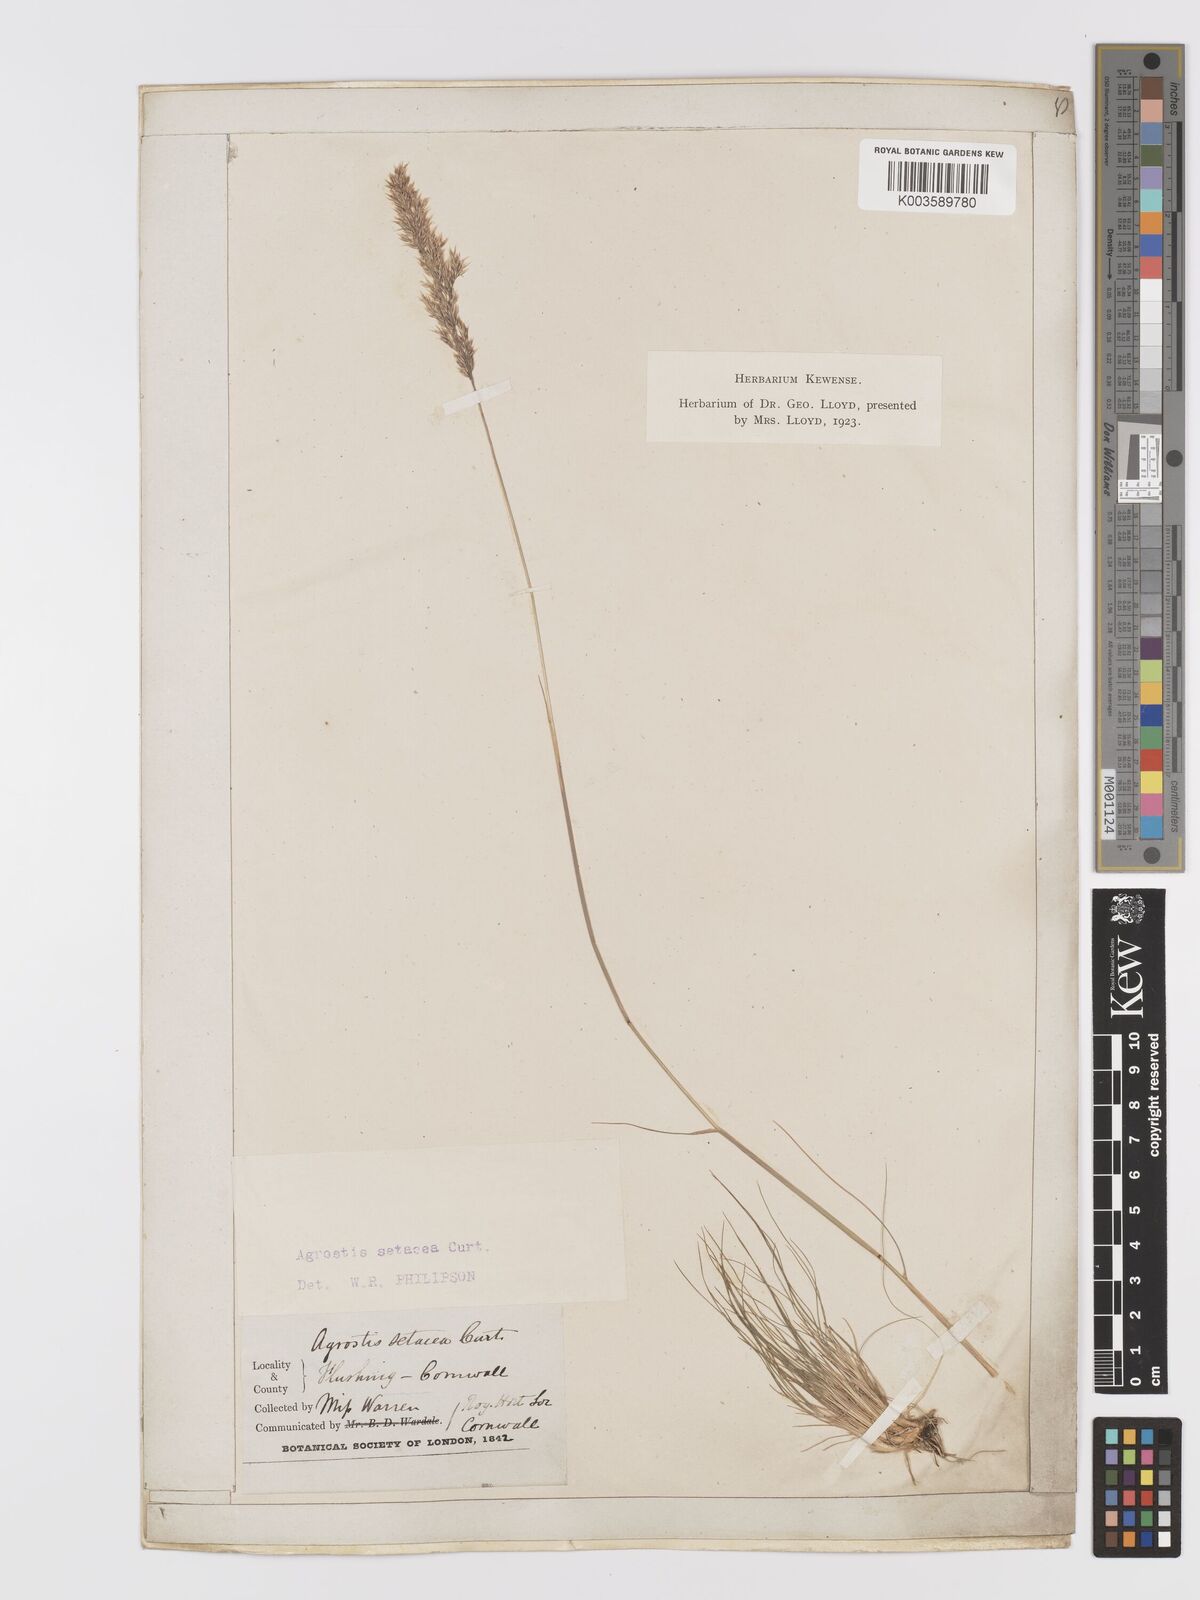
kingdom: Plantae
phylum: Tracheophyta
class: Liliopsida
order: Poales
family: Poaceae
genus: Alpagrostis
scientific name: Alpagrostis setacea
